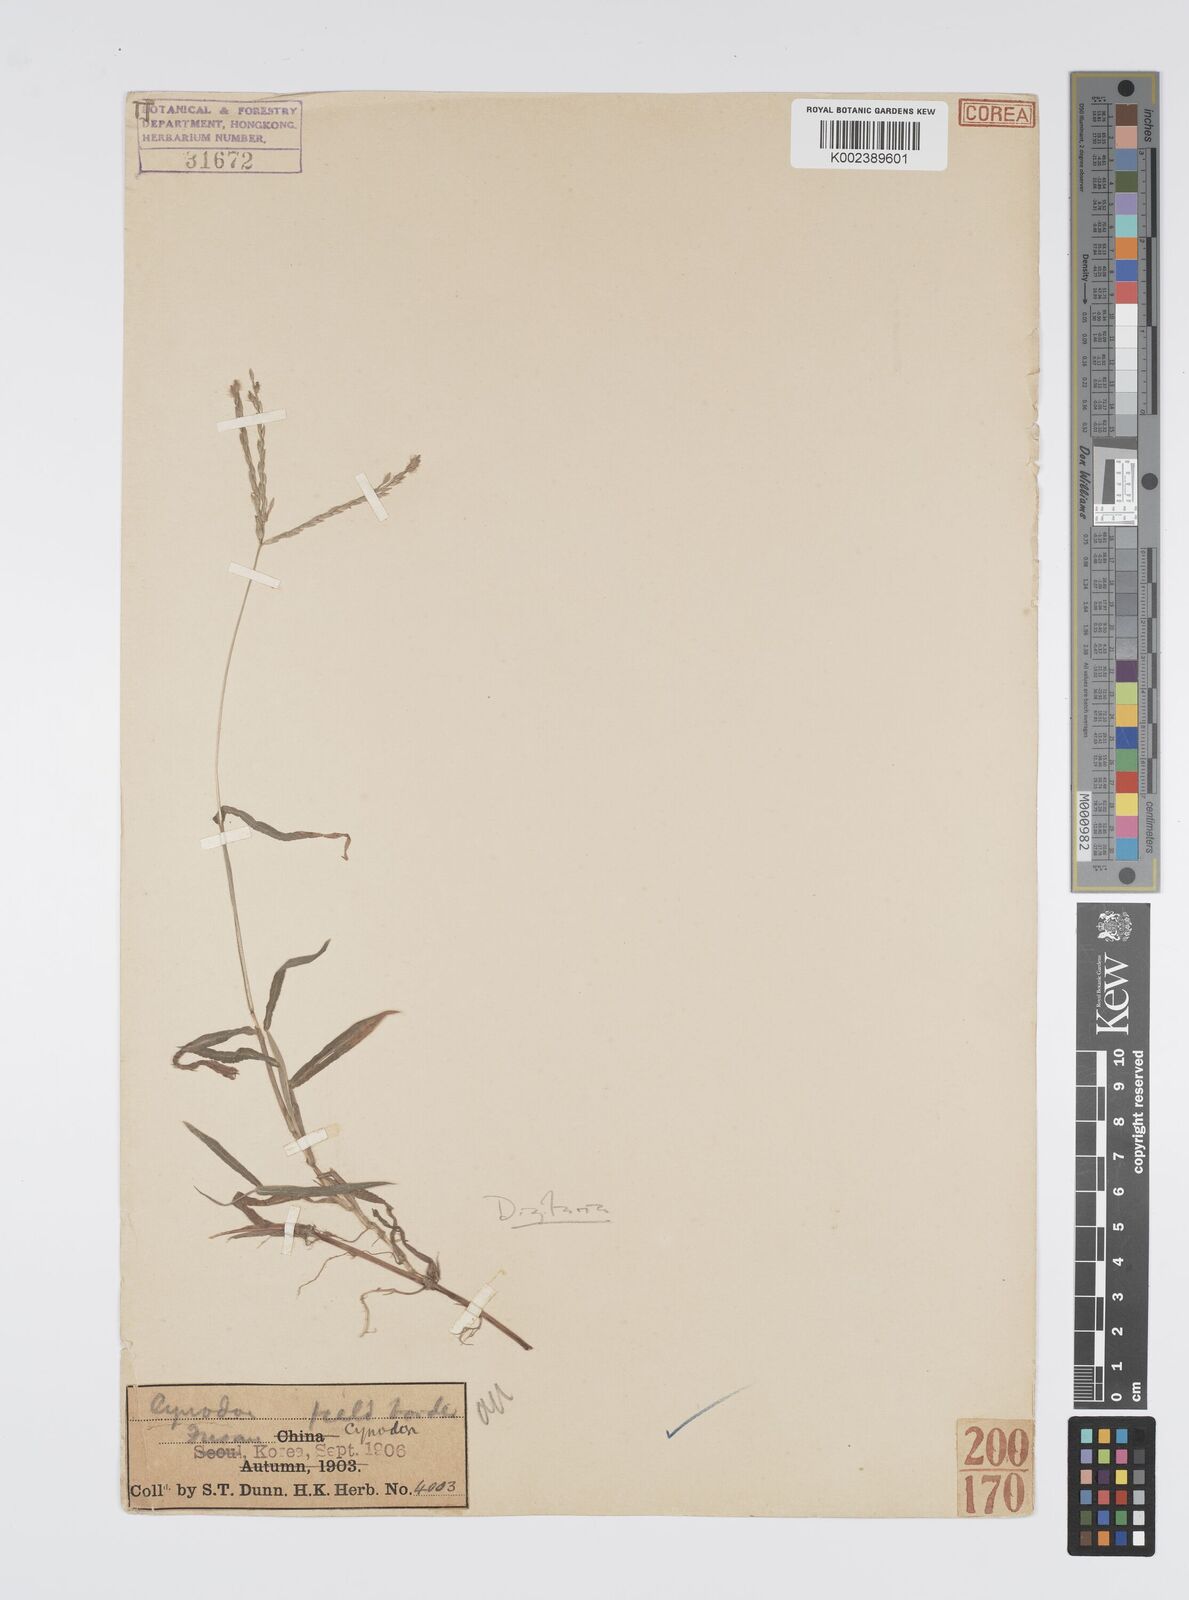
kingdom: Plantae
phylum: Tracheophyta
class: Liliopsida
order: Poales
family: Poaceae
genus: Digitaria
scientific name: Digitaria ciliaris
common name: Tropical finger-grass
